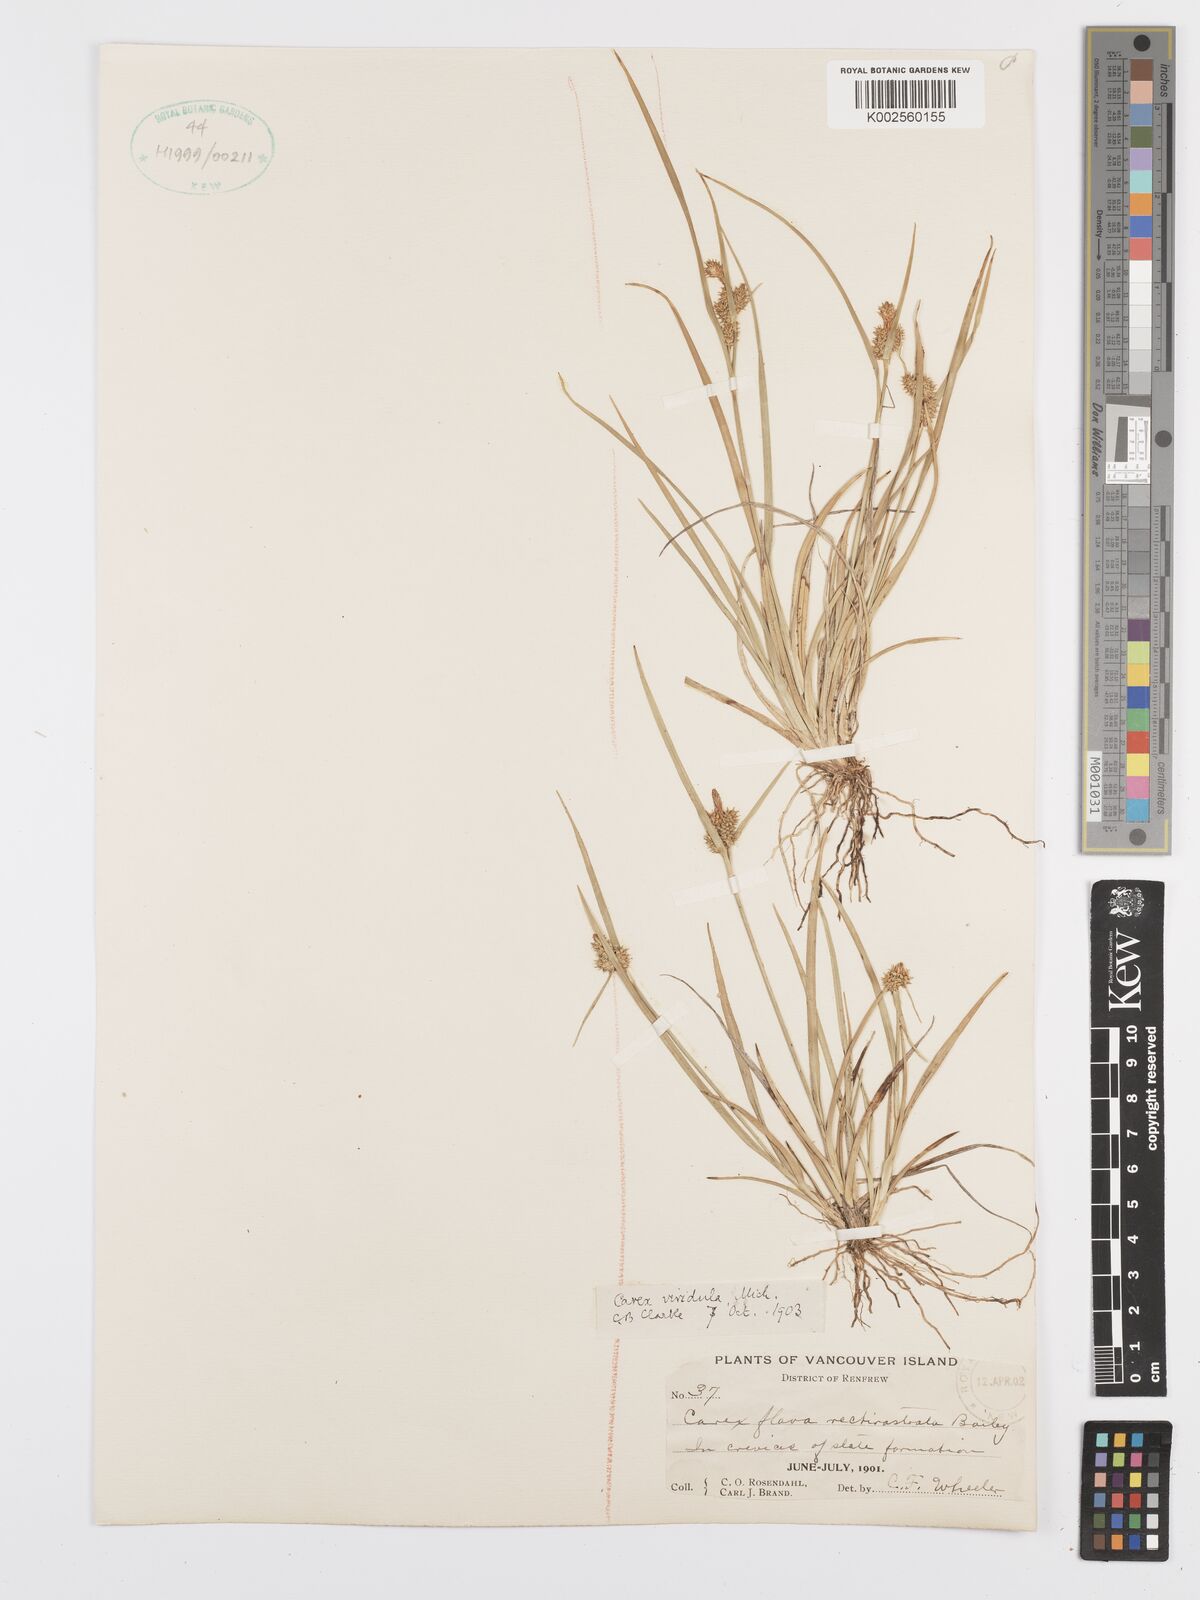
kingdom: Plantae
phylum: Tracheophyta
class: Liliopsida
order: Poales
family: Cyperaceae
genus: Carex
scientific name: Carex oederi
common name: Common & small-fruited yellow-sedge
